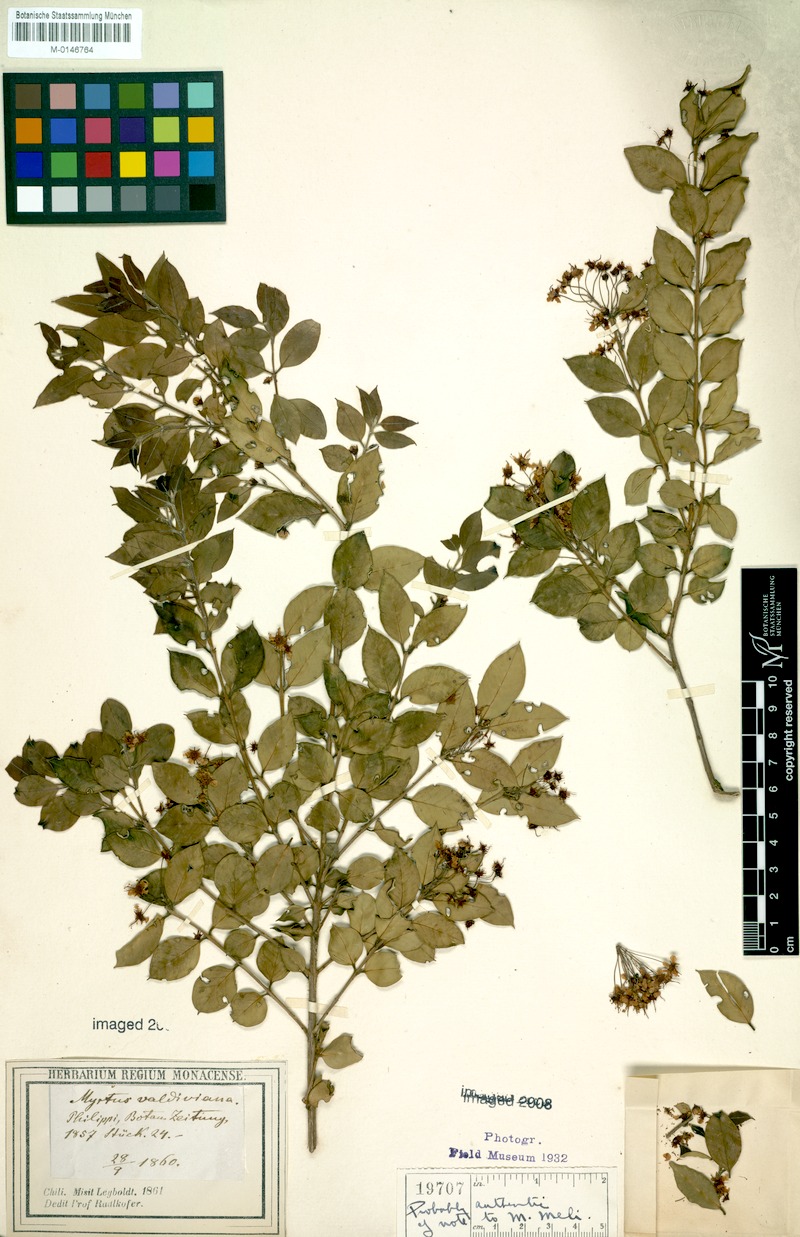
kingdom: Plantae
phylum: Tracheophyta
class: Magnoliopsida
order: Myrtales
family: Myrtaceae
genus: Amomyrtus
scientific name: Amomyrtus luma
